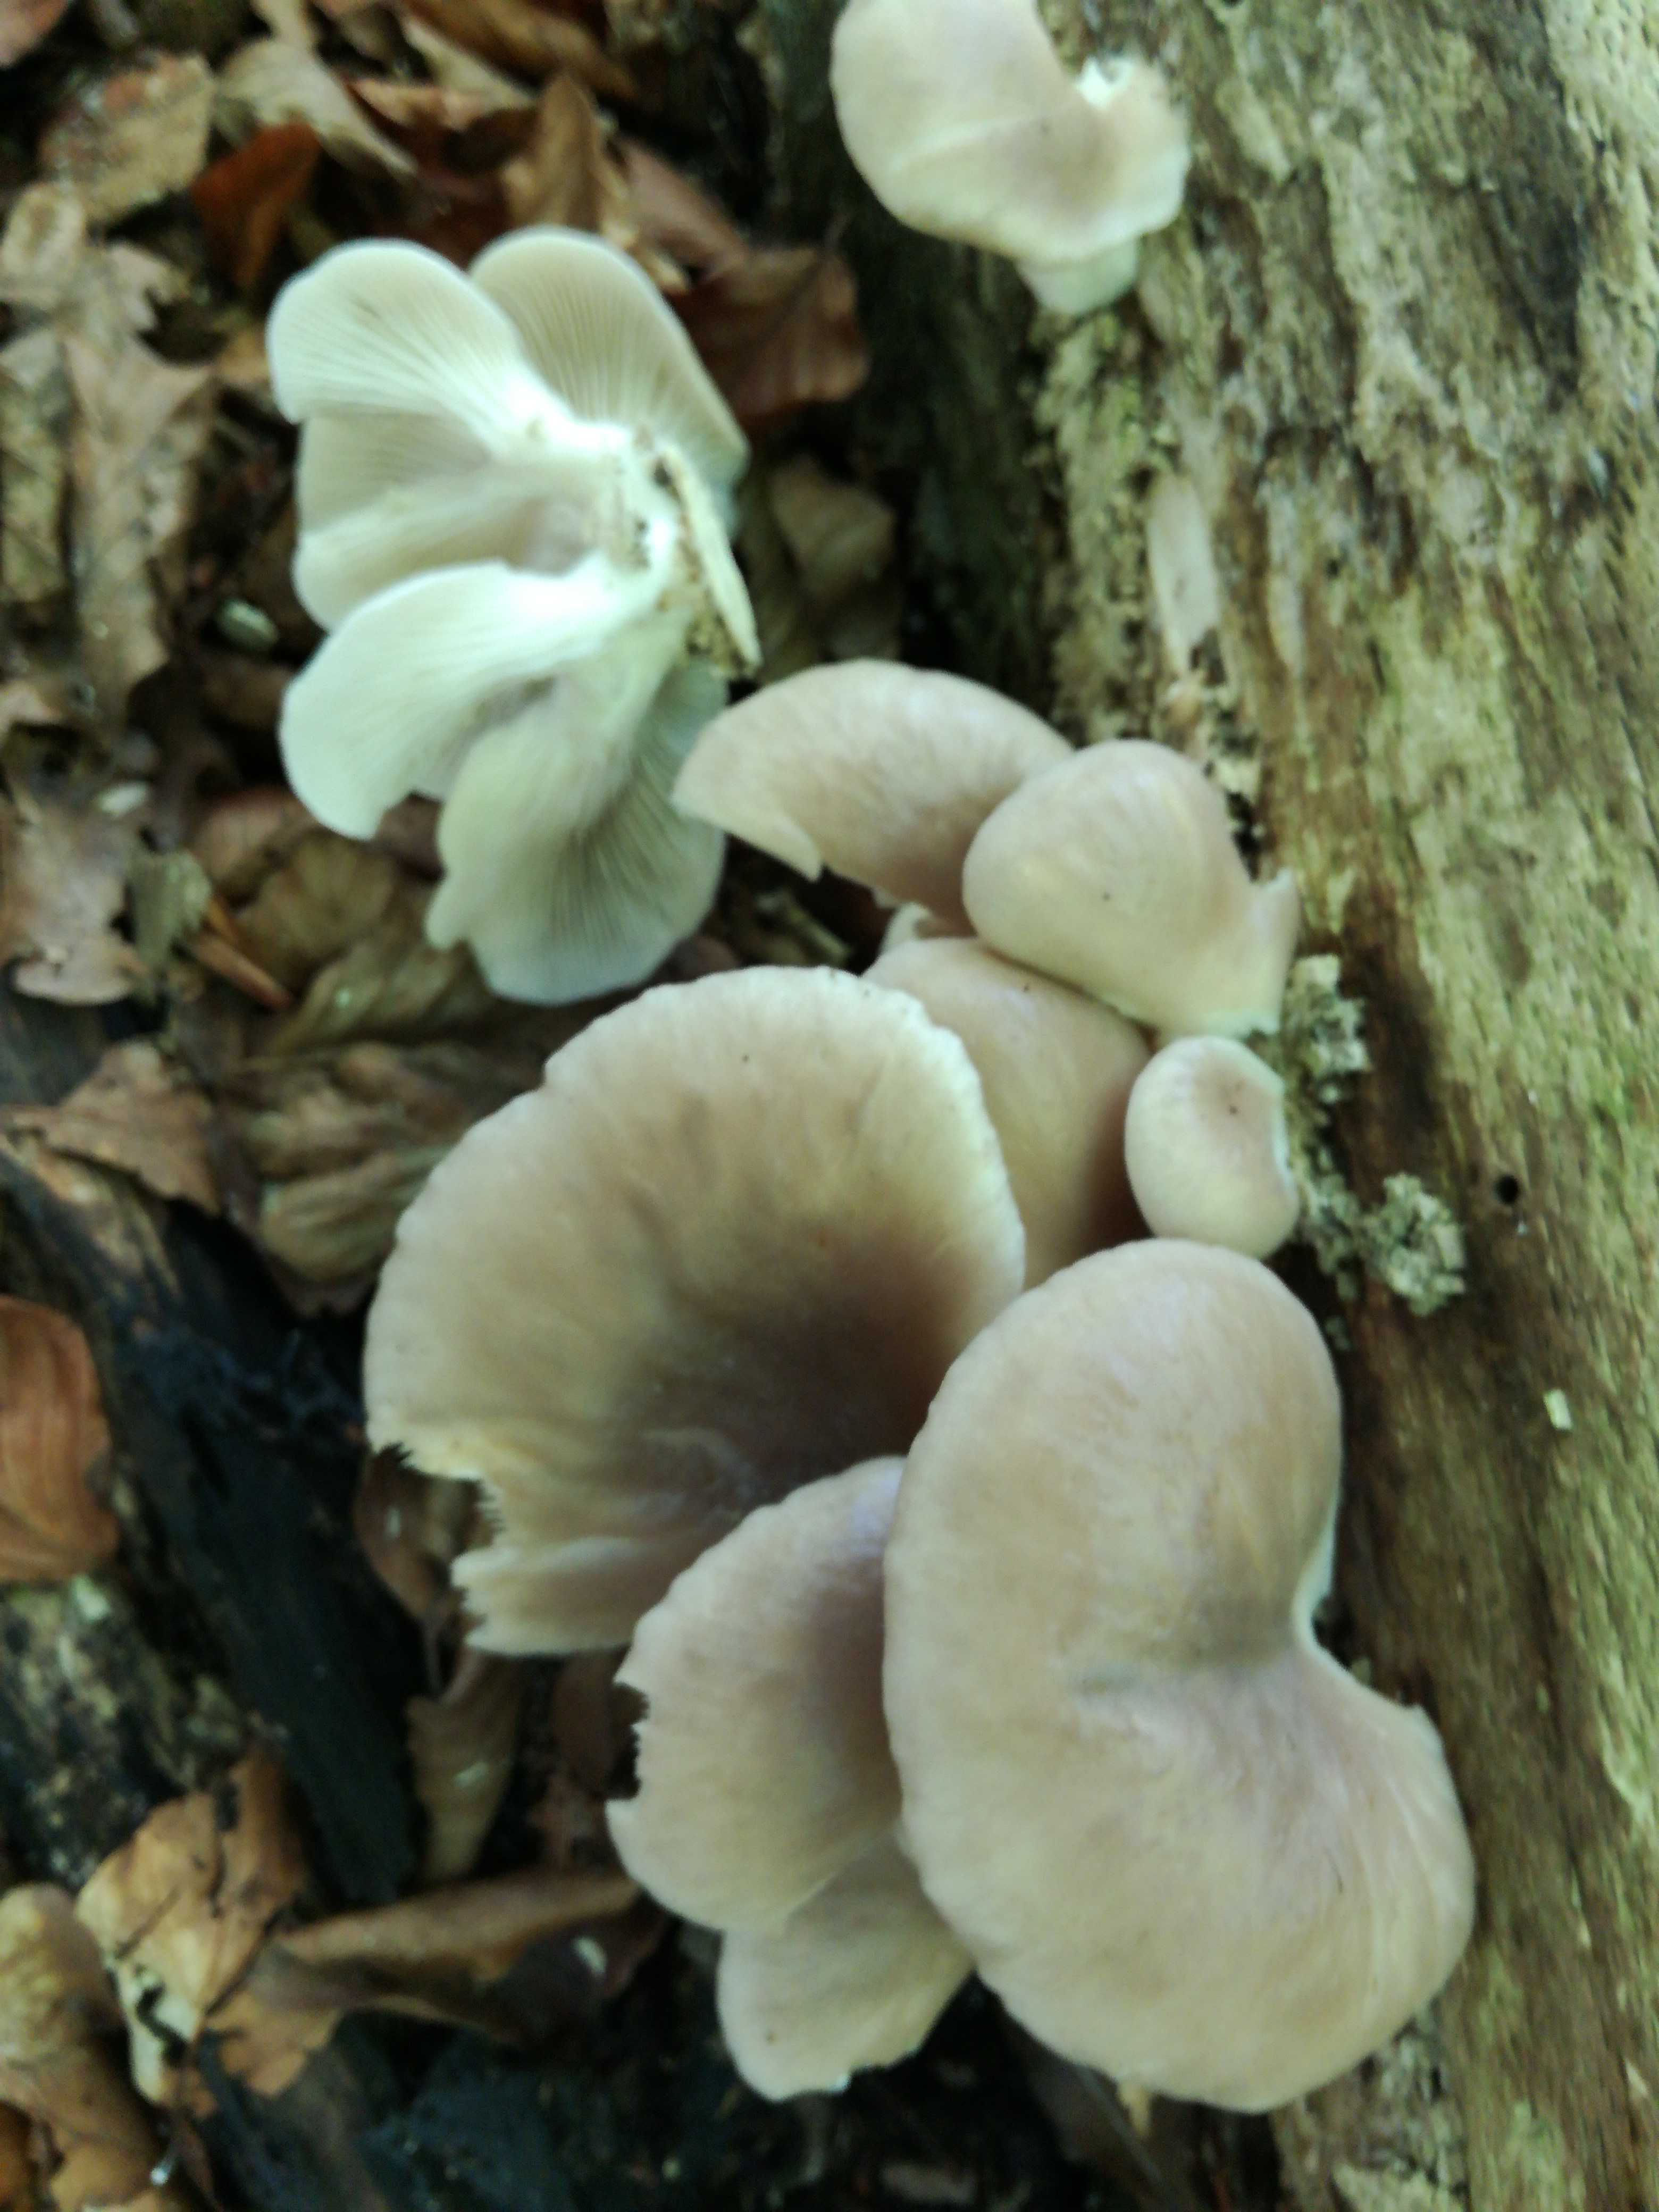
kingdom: Fungi
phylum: Basidiomycota
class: Agaricomycetes
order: Agaricales
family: Pleurotaceae
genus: Pleurotus
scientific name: Pleurotus pulmonarius
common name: sommer-østershat
